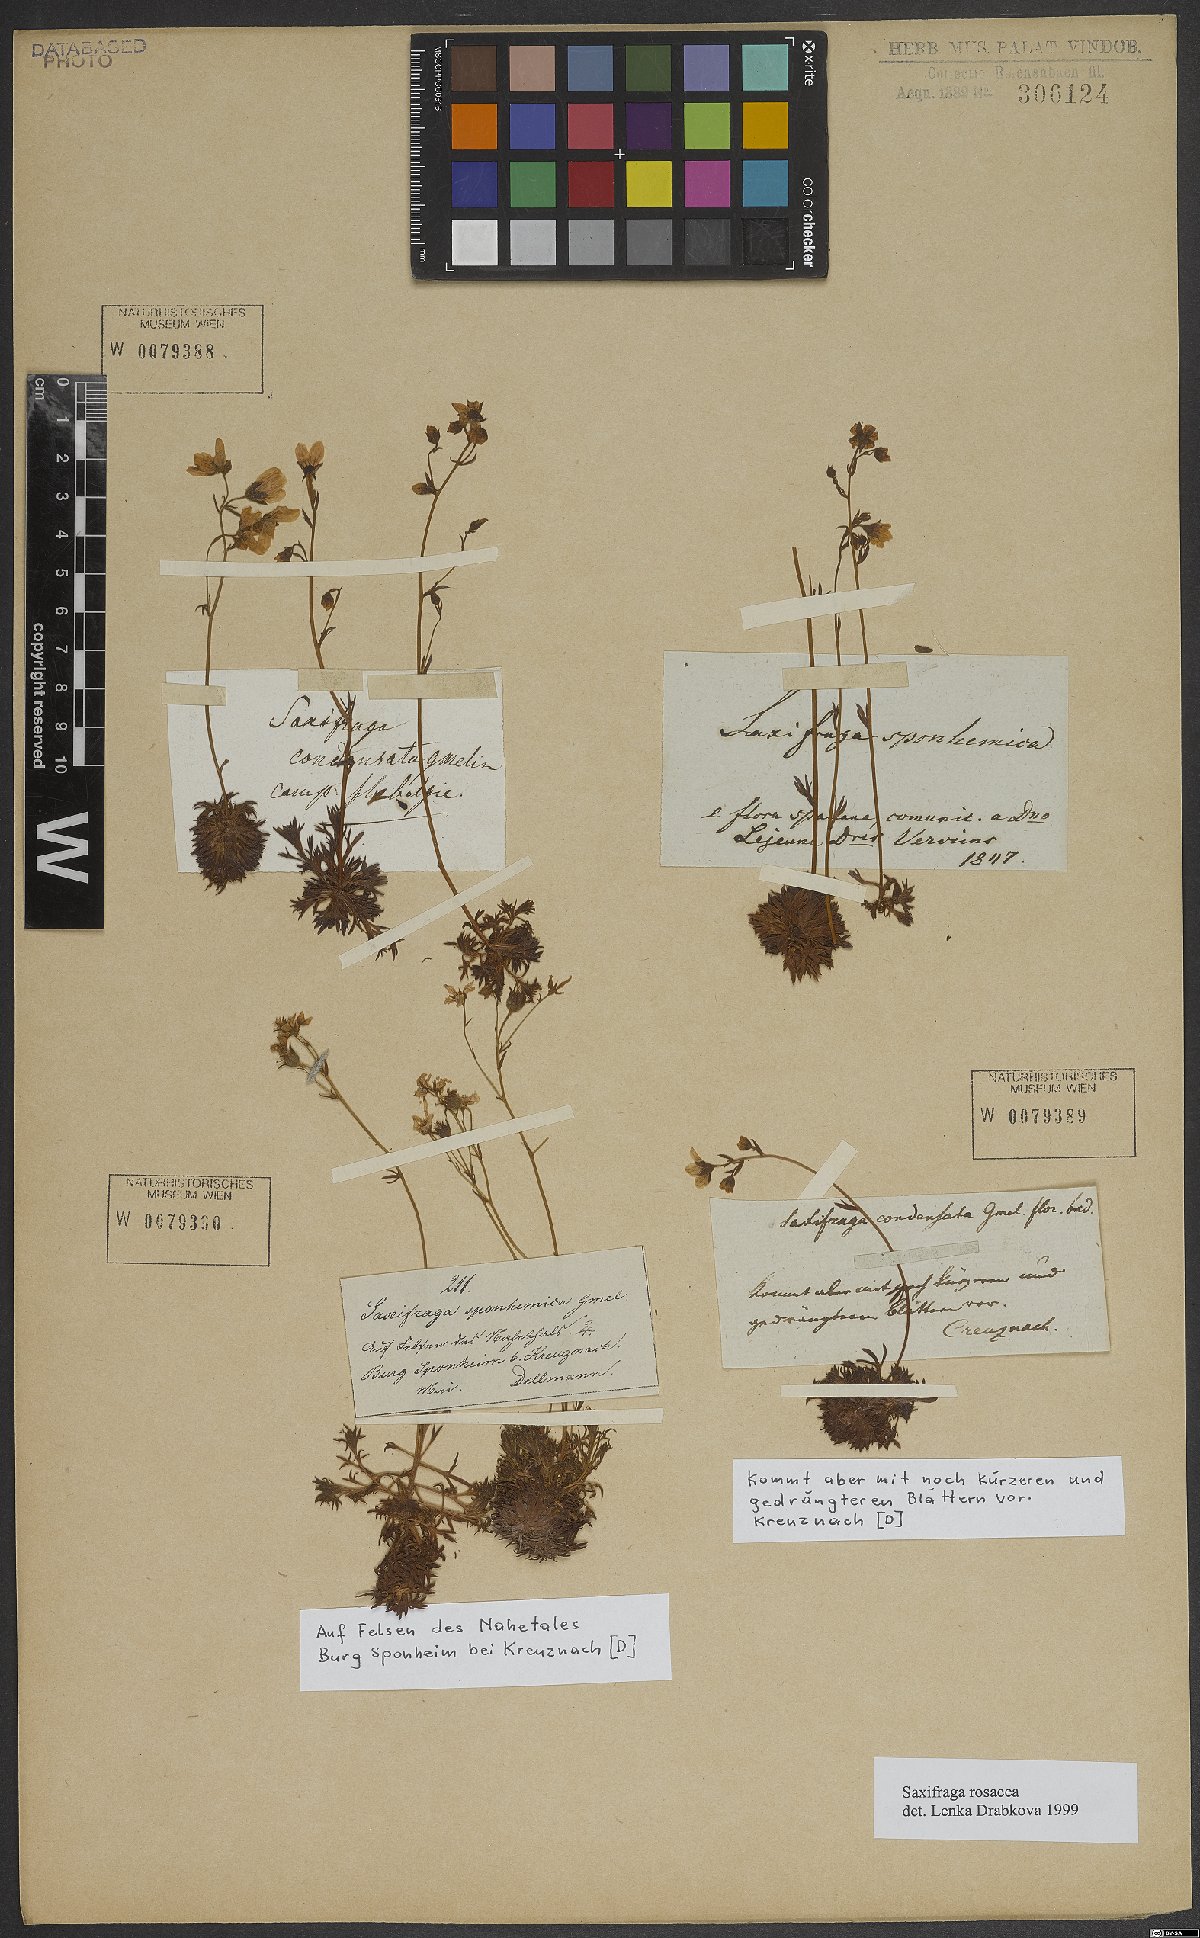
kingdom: Plantae
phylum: Tracheophyta
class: Magnoliopsida
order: Saxifragales
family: Saxifragaceae
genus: Saxifraga
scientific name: Saxifraga rosacea
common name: Irish saxifrage
